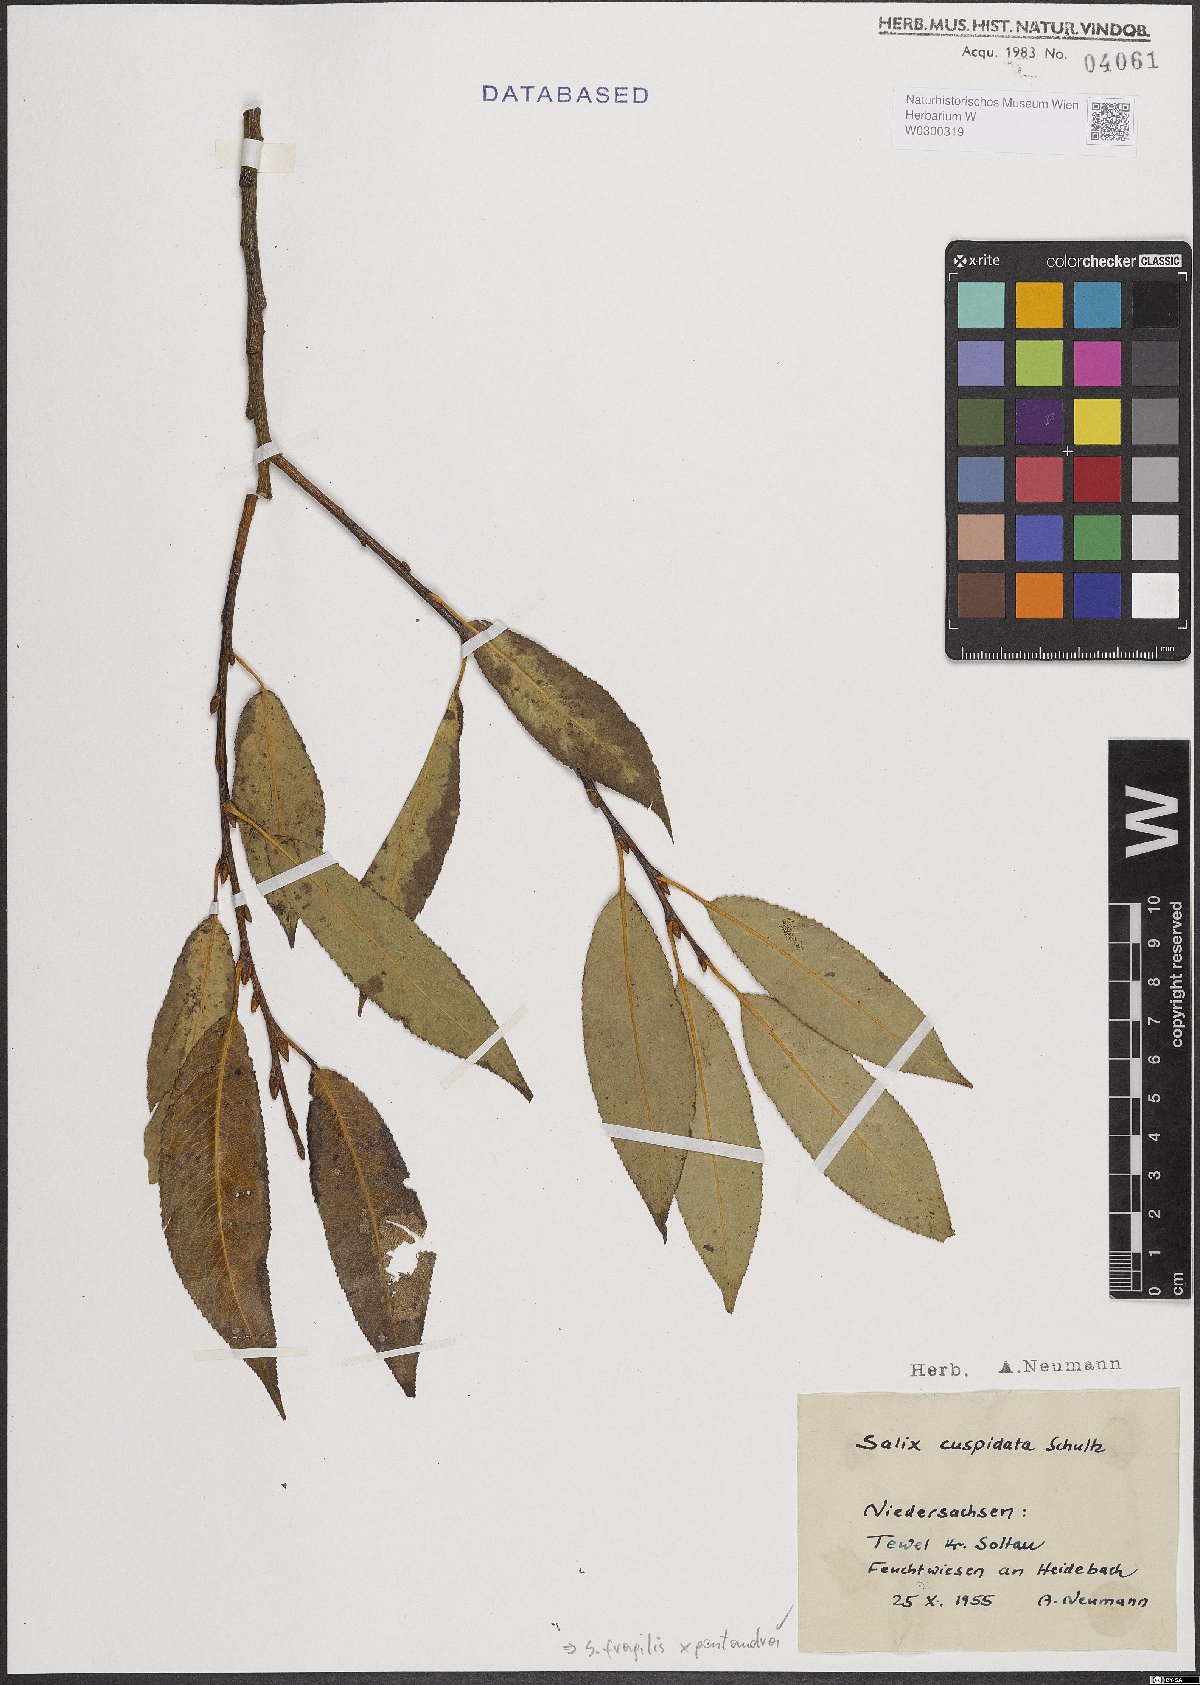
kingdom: Plantae
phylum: Tracheophyta
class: Magnoliopsida
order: Malpighiales
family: Salicaceae
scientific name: Salicaceae
